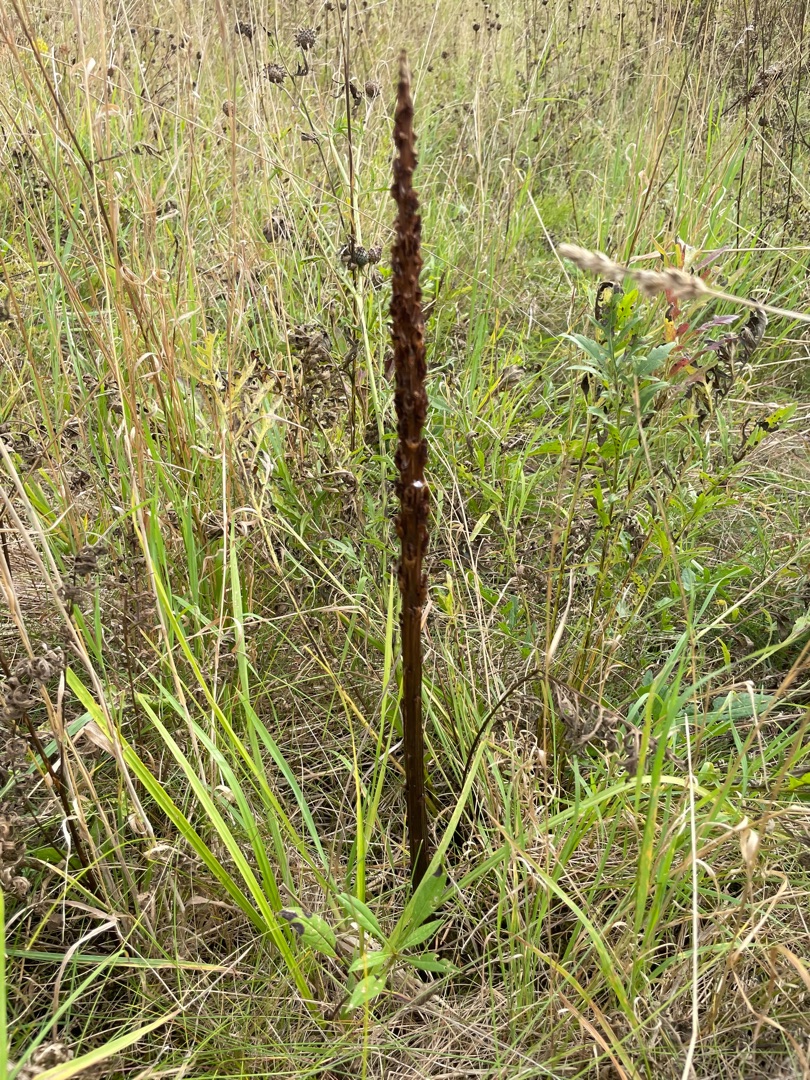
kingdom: Plantae
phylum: Tracheophyta
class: Magnoliopsida
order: Lamiales
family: Orobanchaceae
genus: Orobanche
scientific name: Orobanche elatior
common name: Stor gyvelkvæler
